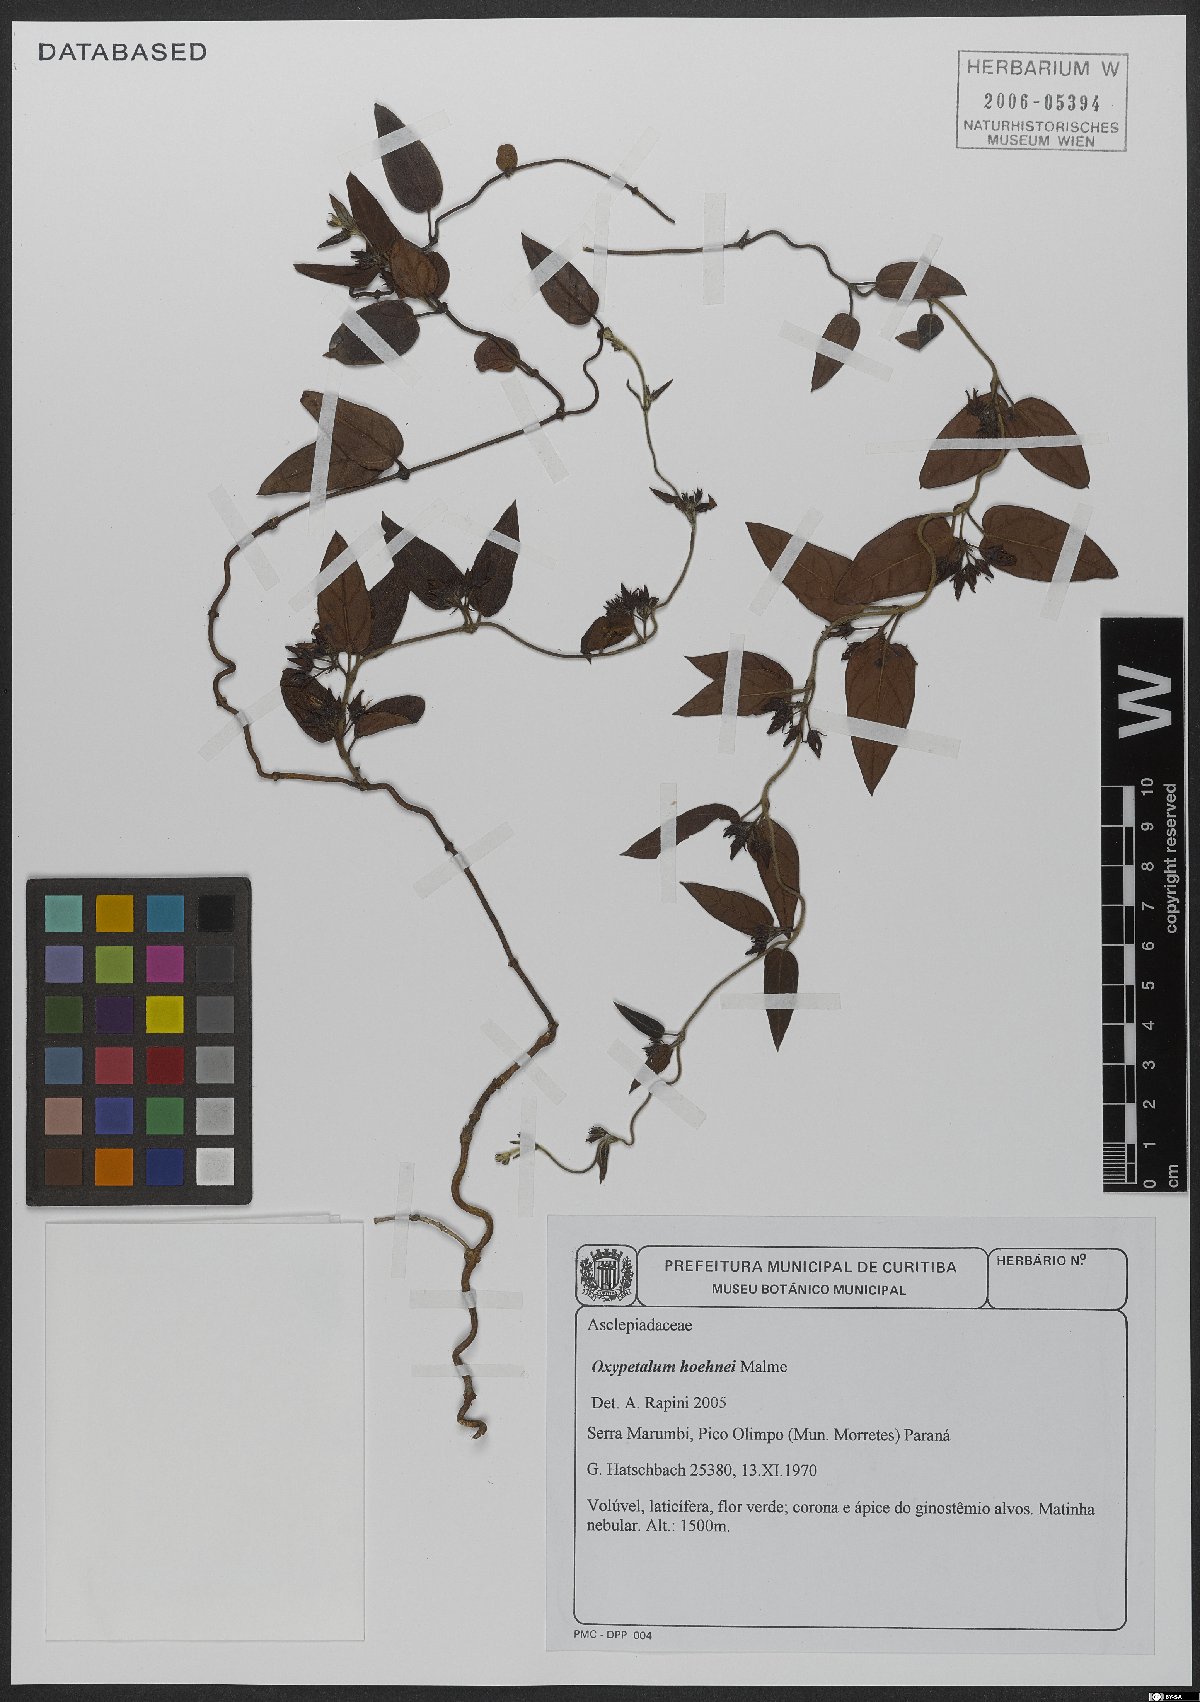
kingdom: Plantae
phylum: Tracheophyta
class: Magnoliopsida
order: Gentianales
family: Apocynaceae
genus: Oxypetalum
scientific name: Oxypetalum hoehnei
